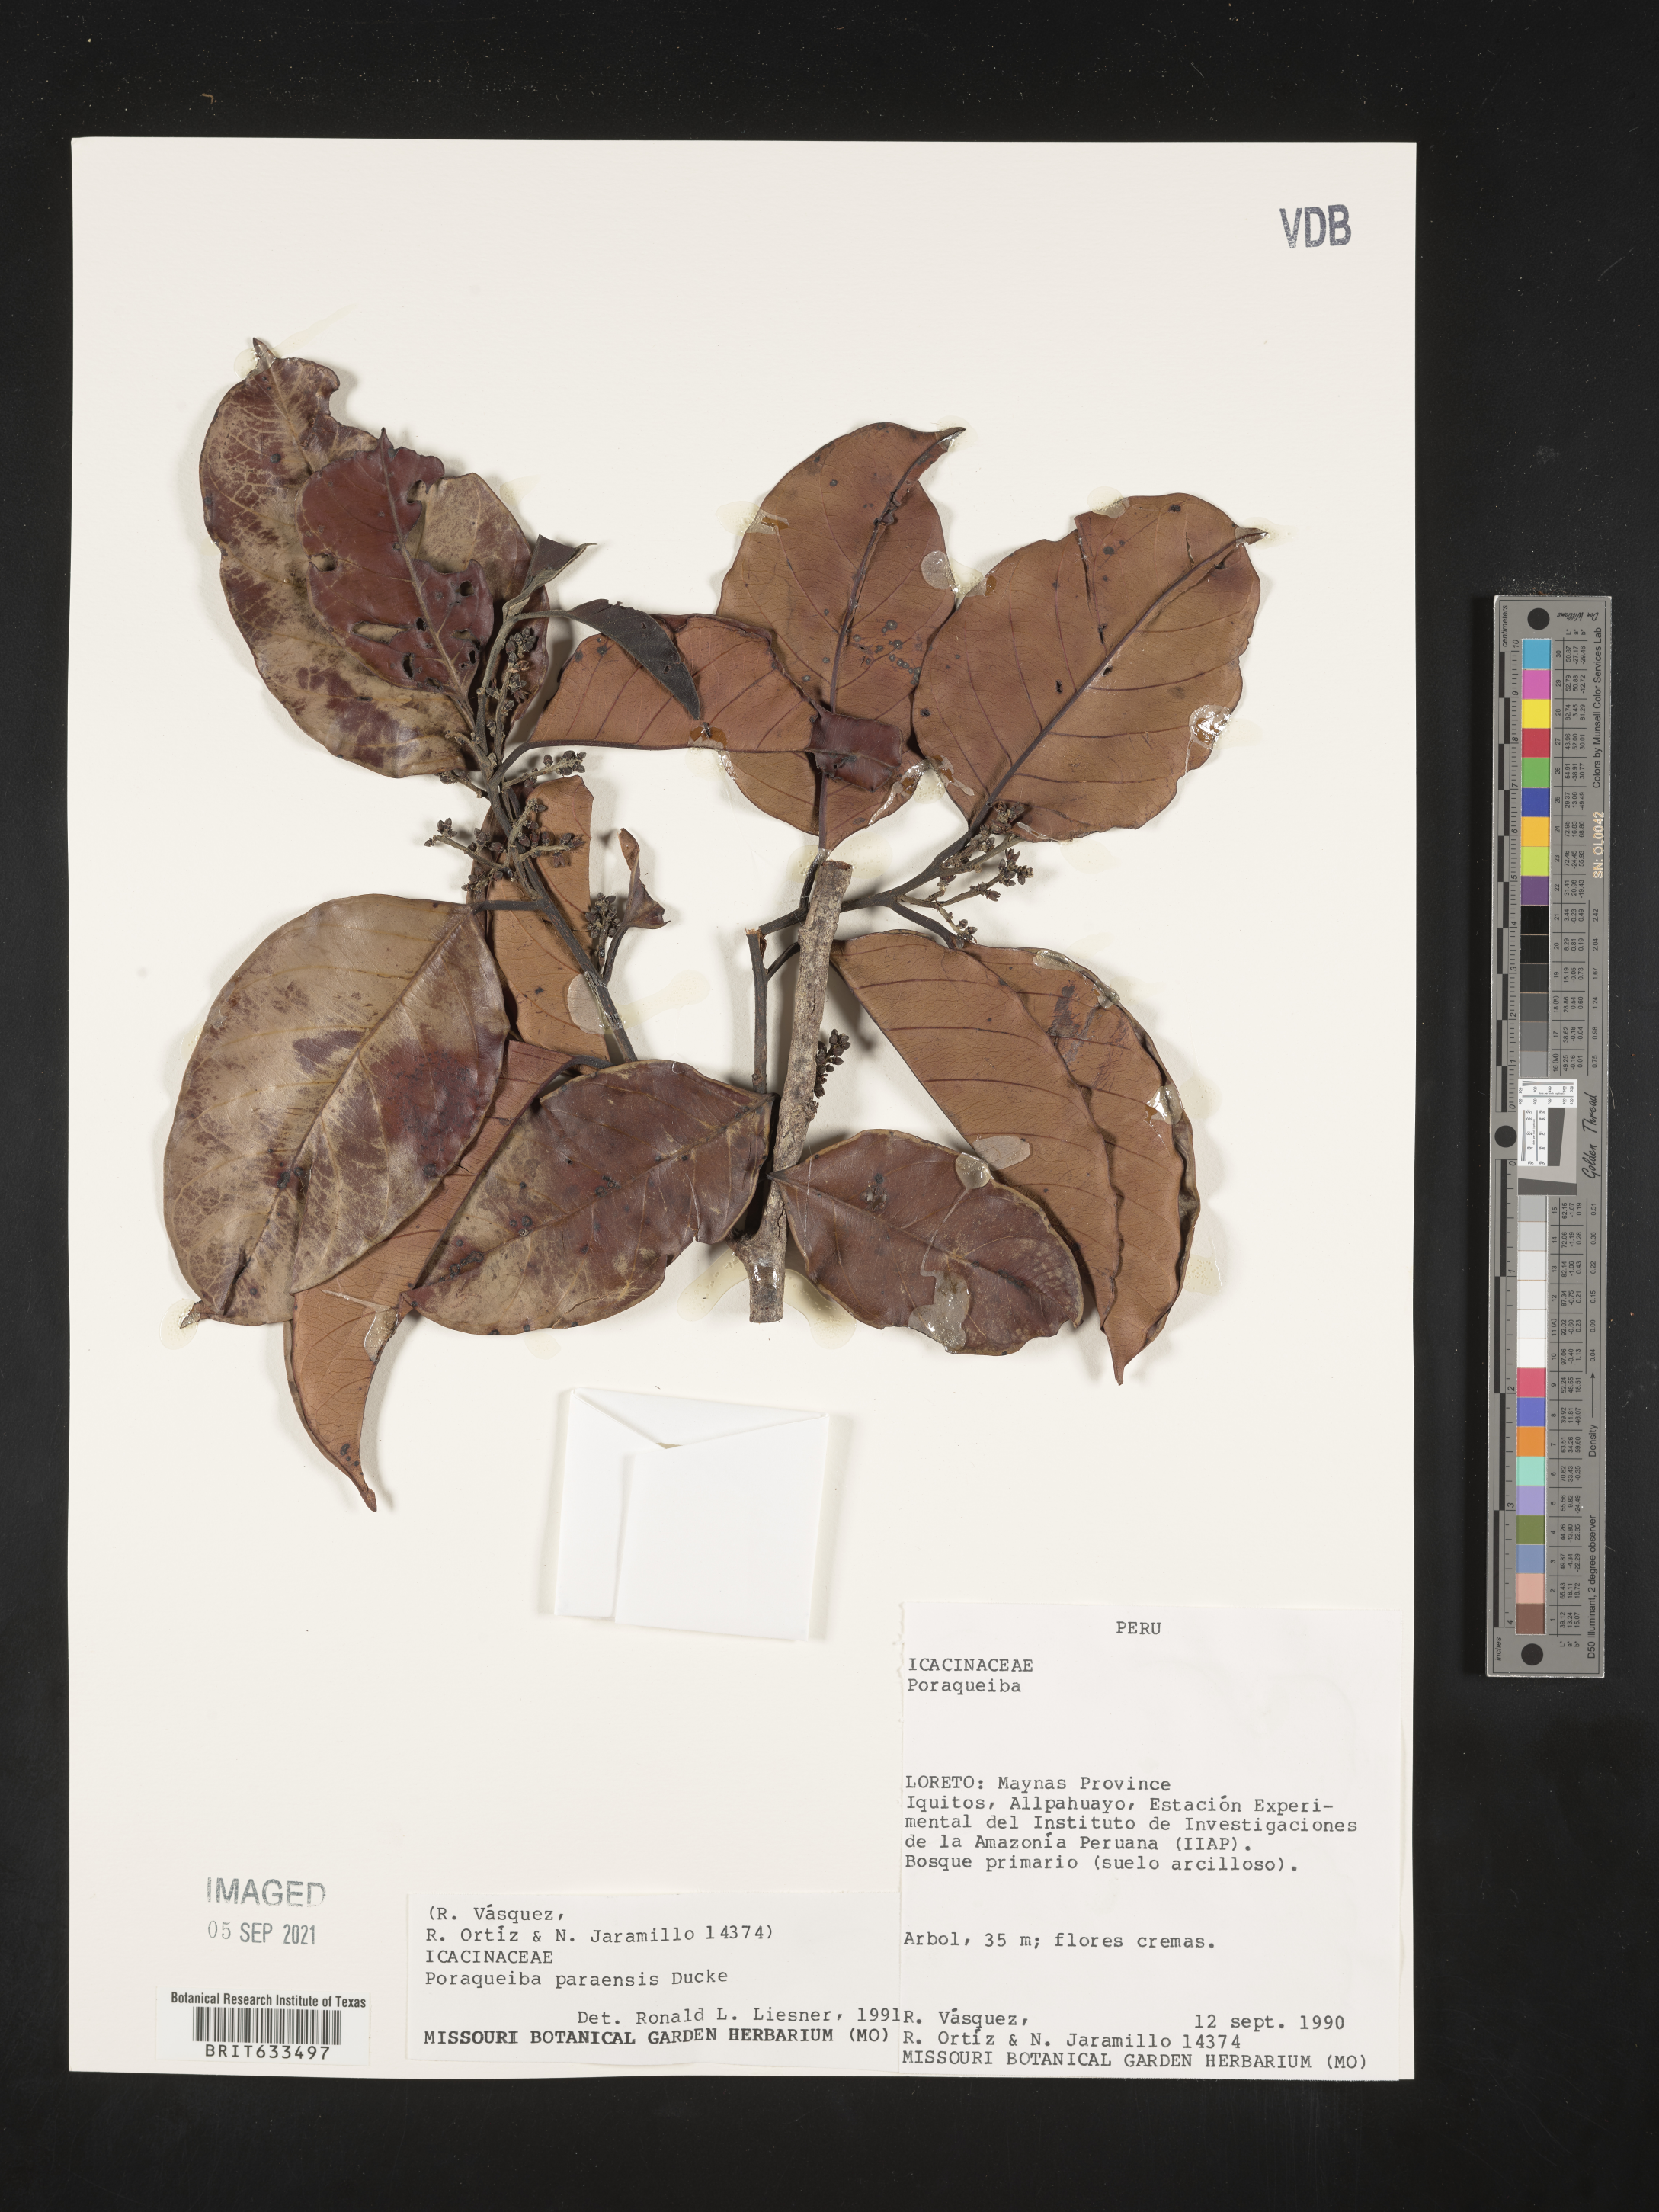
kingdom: Plantae
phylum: Tracheophyta
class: Magnoliopsida
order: Icacinales
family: Icacinaceae
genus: Poraqueiba
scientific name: Poraqueiba
